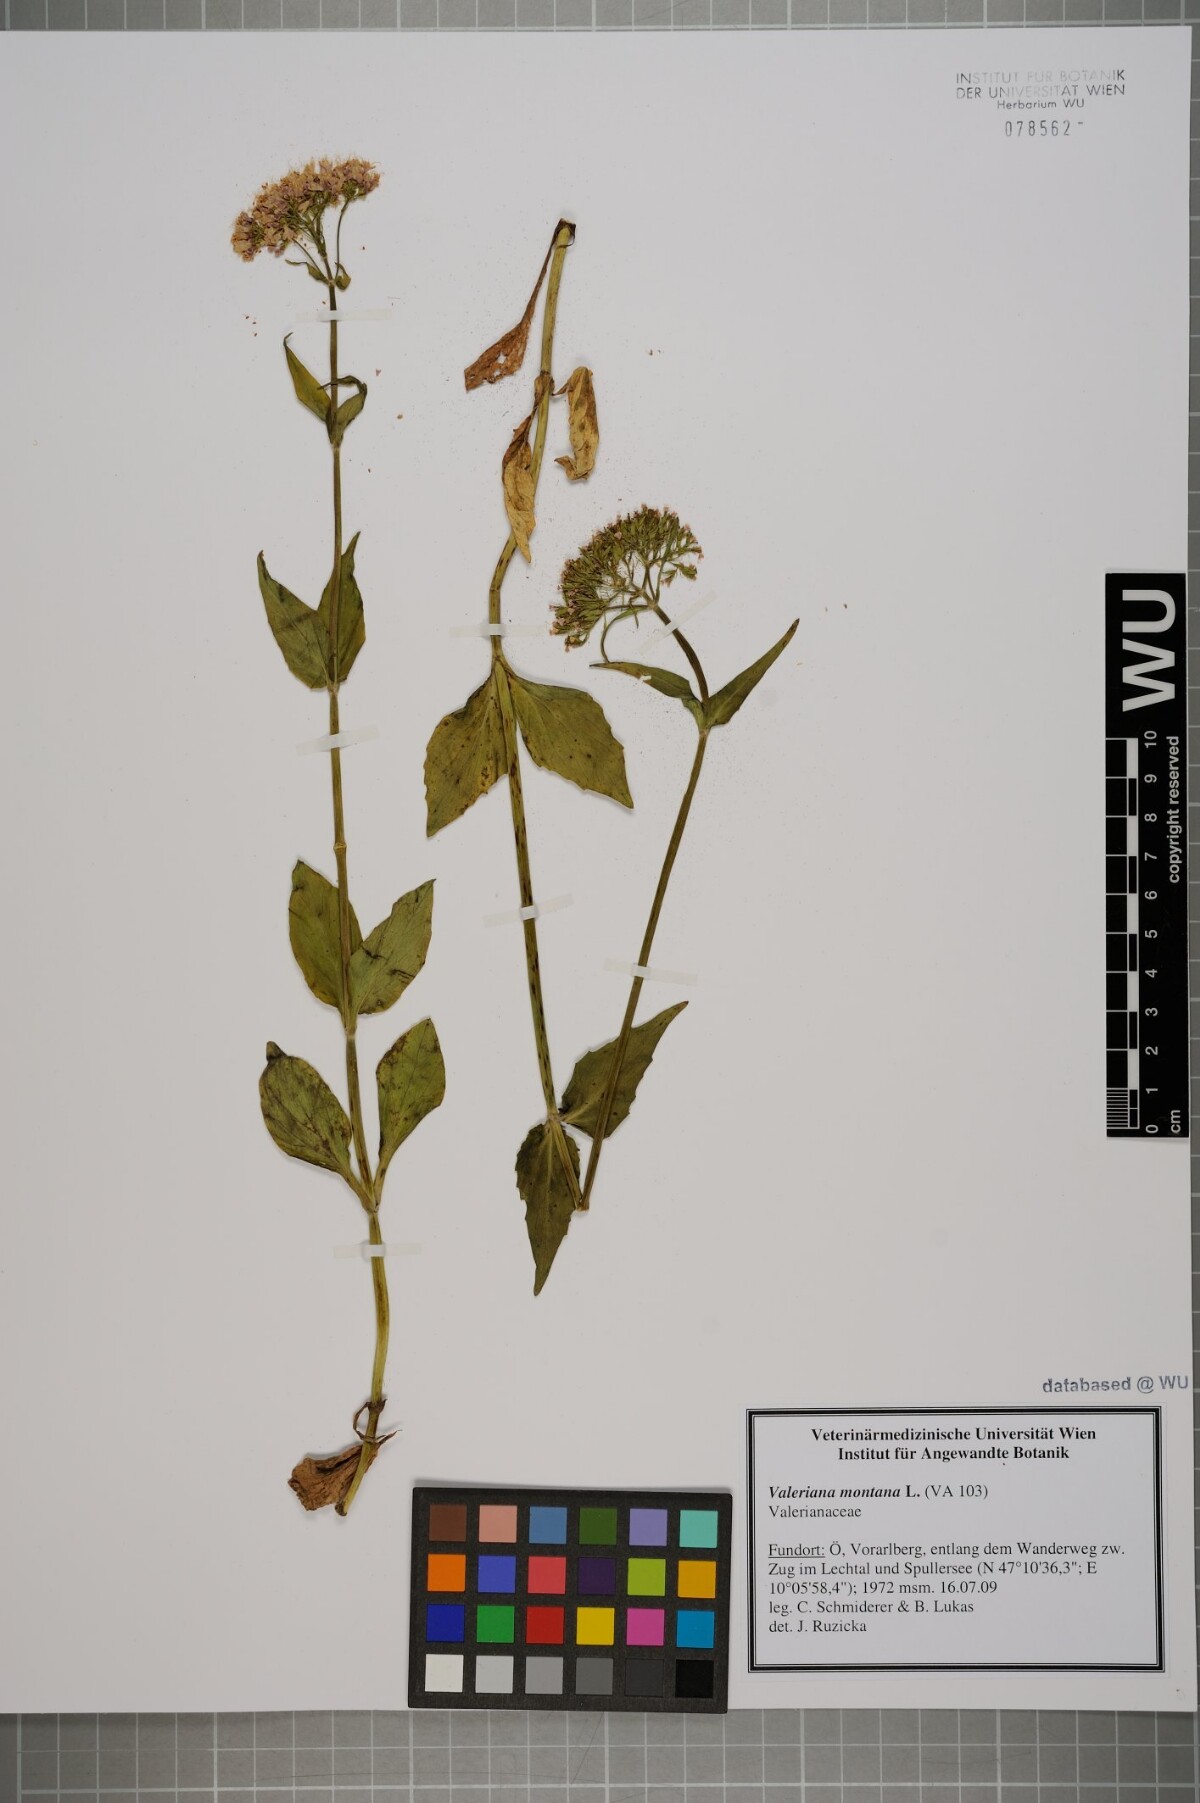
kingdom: Plantae
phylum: Tracheophyta
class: Magnoliopsida
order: Dipsacales
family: Caprifoliaceae
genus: Valeriana
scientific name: Valeriana montana
